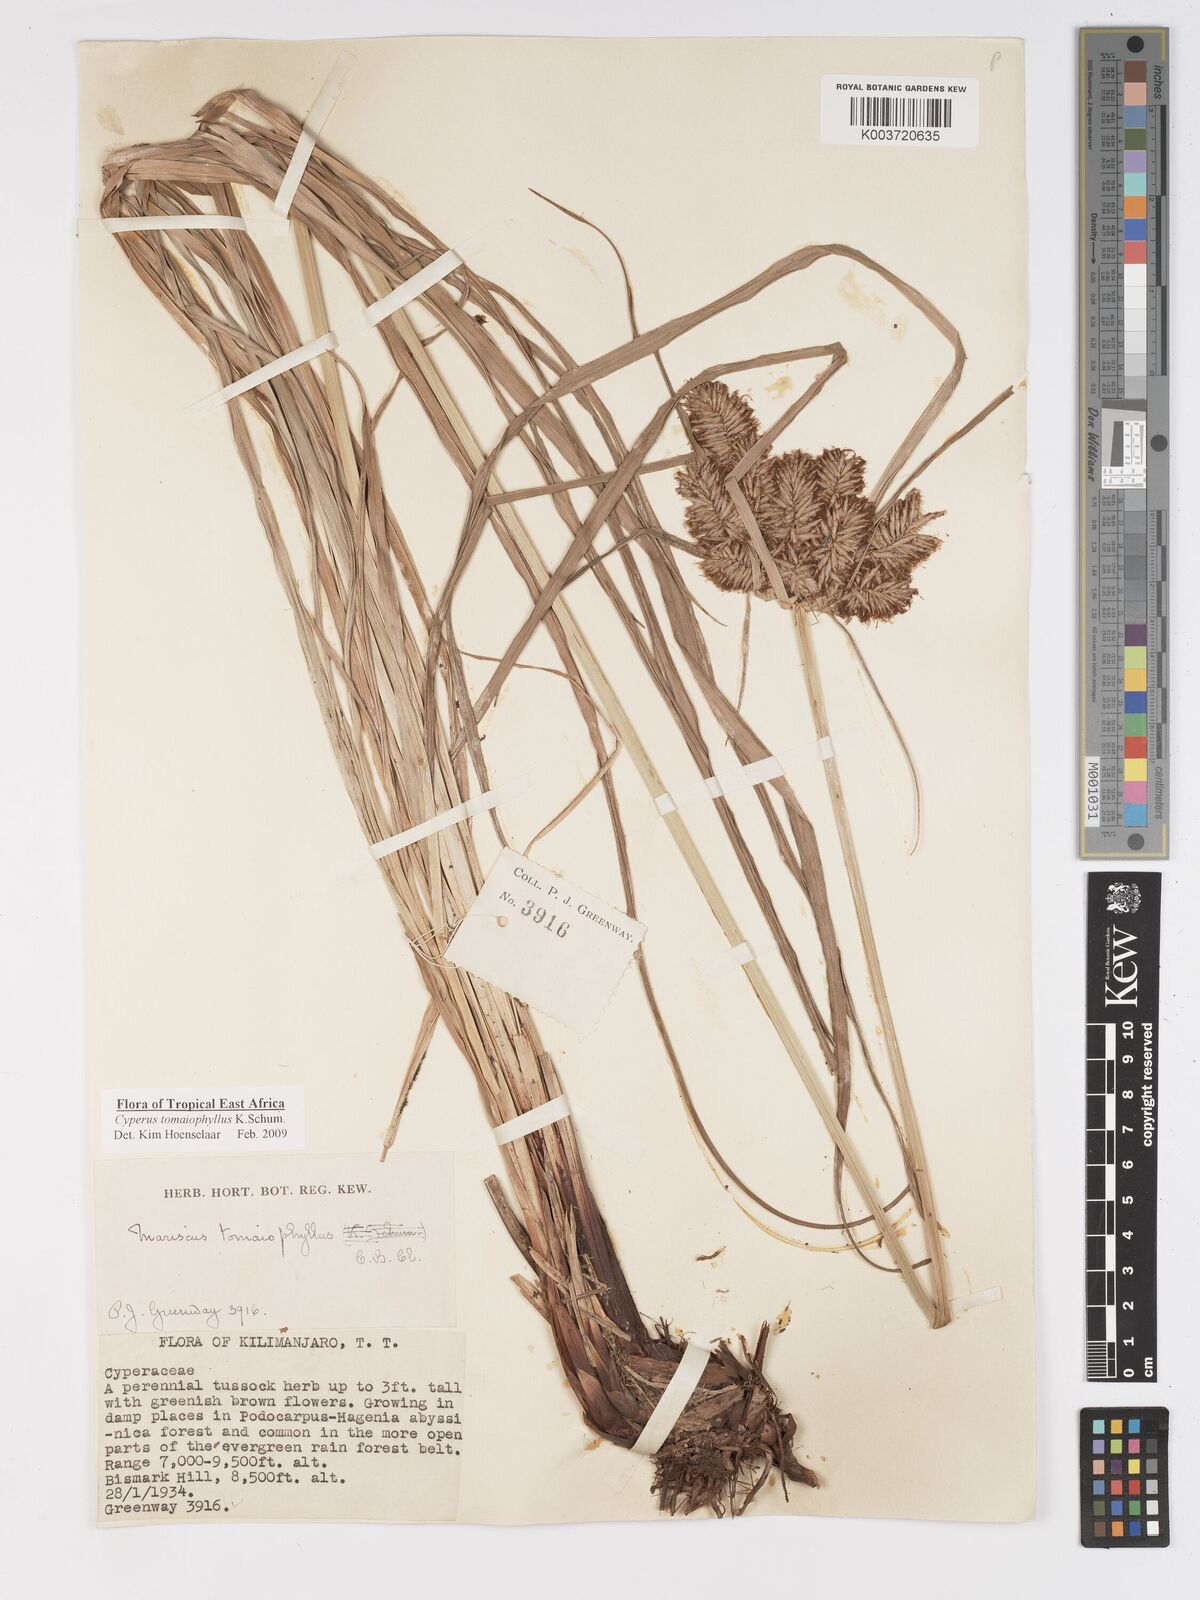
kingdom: Plantae
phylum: Tracheophyta
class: Liliopsida
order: Poales
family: Cyperaceae
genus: Cyperus
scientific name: Cyperus tomaiophyllus
